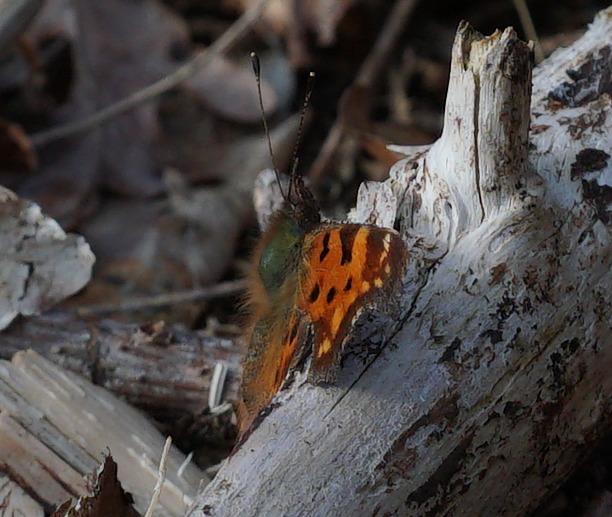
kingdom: Animalia
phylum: Arthropoda
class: Insecta
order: Lepidoptera
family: Nymphalidae
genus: Polygonia
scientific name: Polygonia c-album
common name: Det hvide C
